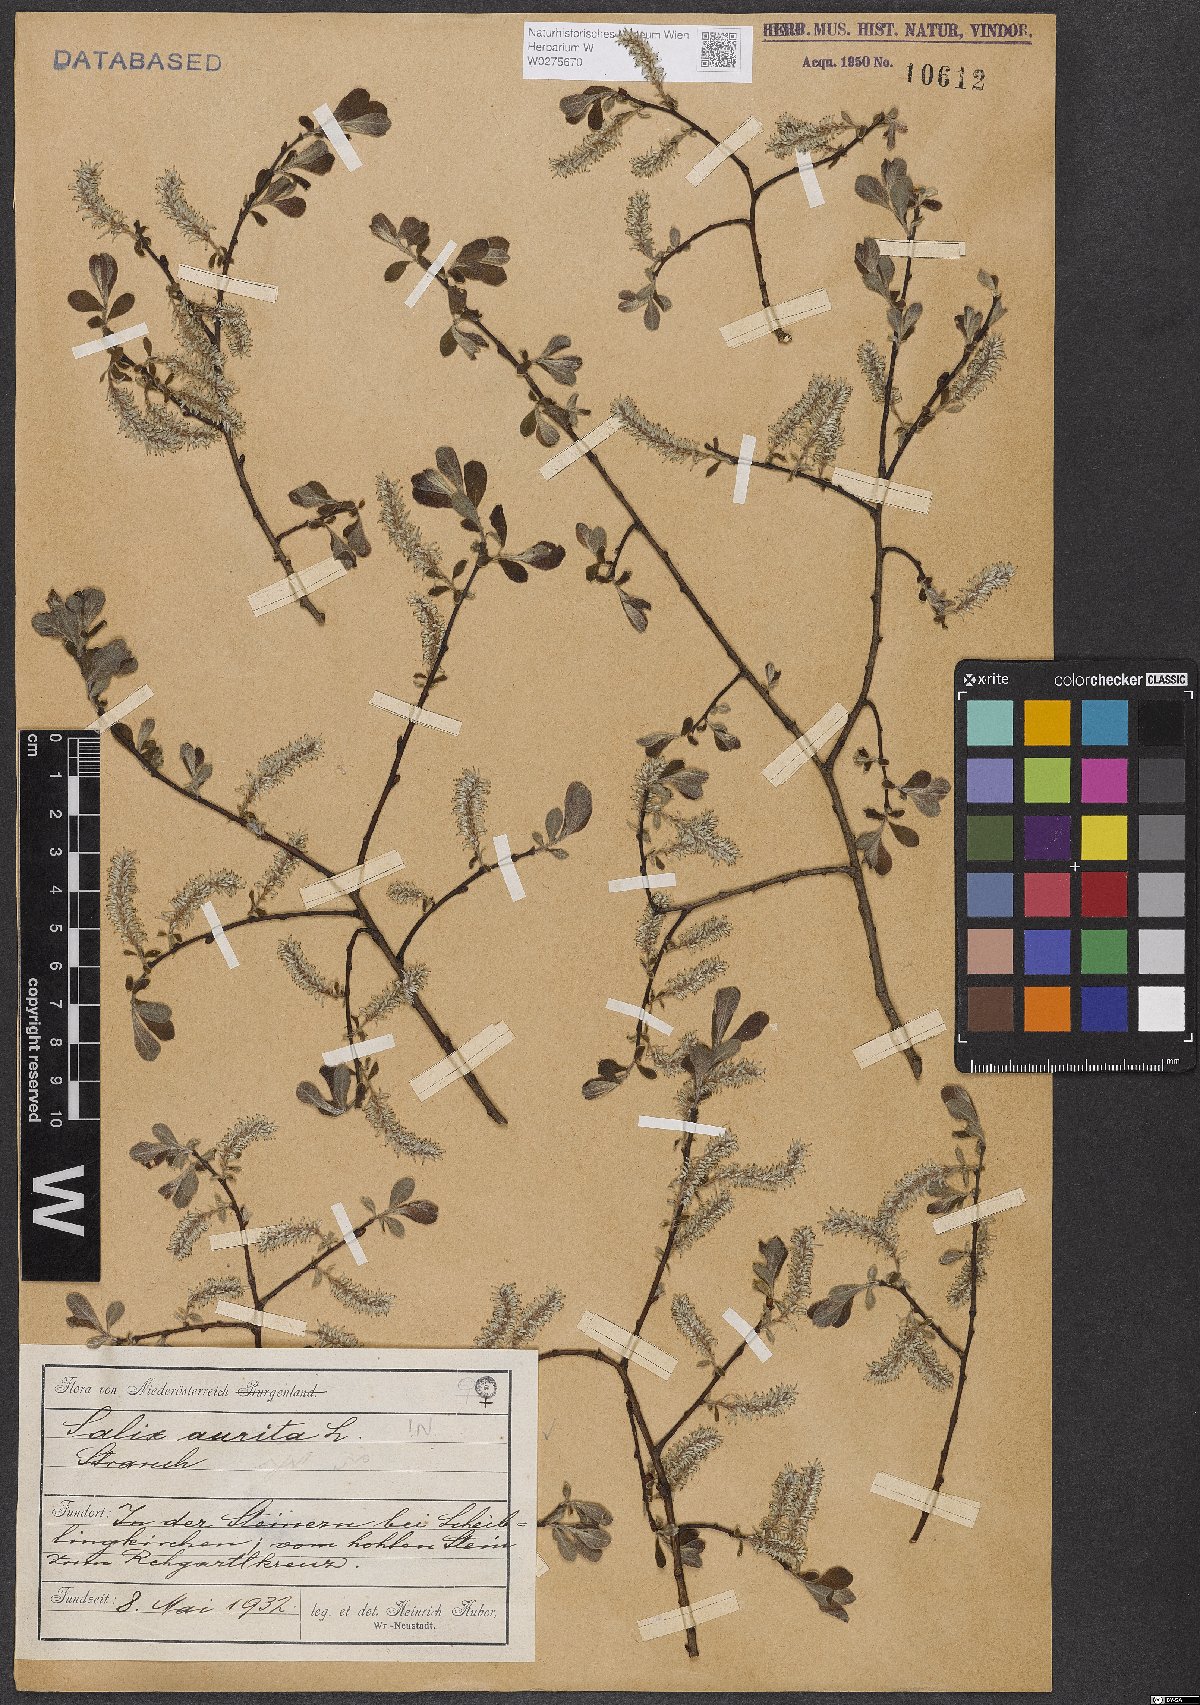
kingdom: Plantae
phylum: Tracheophyta
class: Magnoliopsida
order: Malpighiales
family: Salicaceae
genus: Salix
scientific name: Salix aurita
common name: Eared willow
